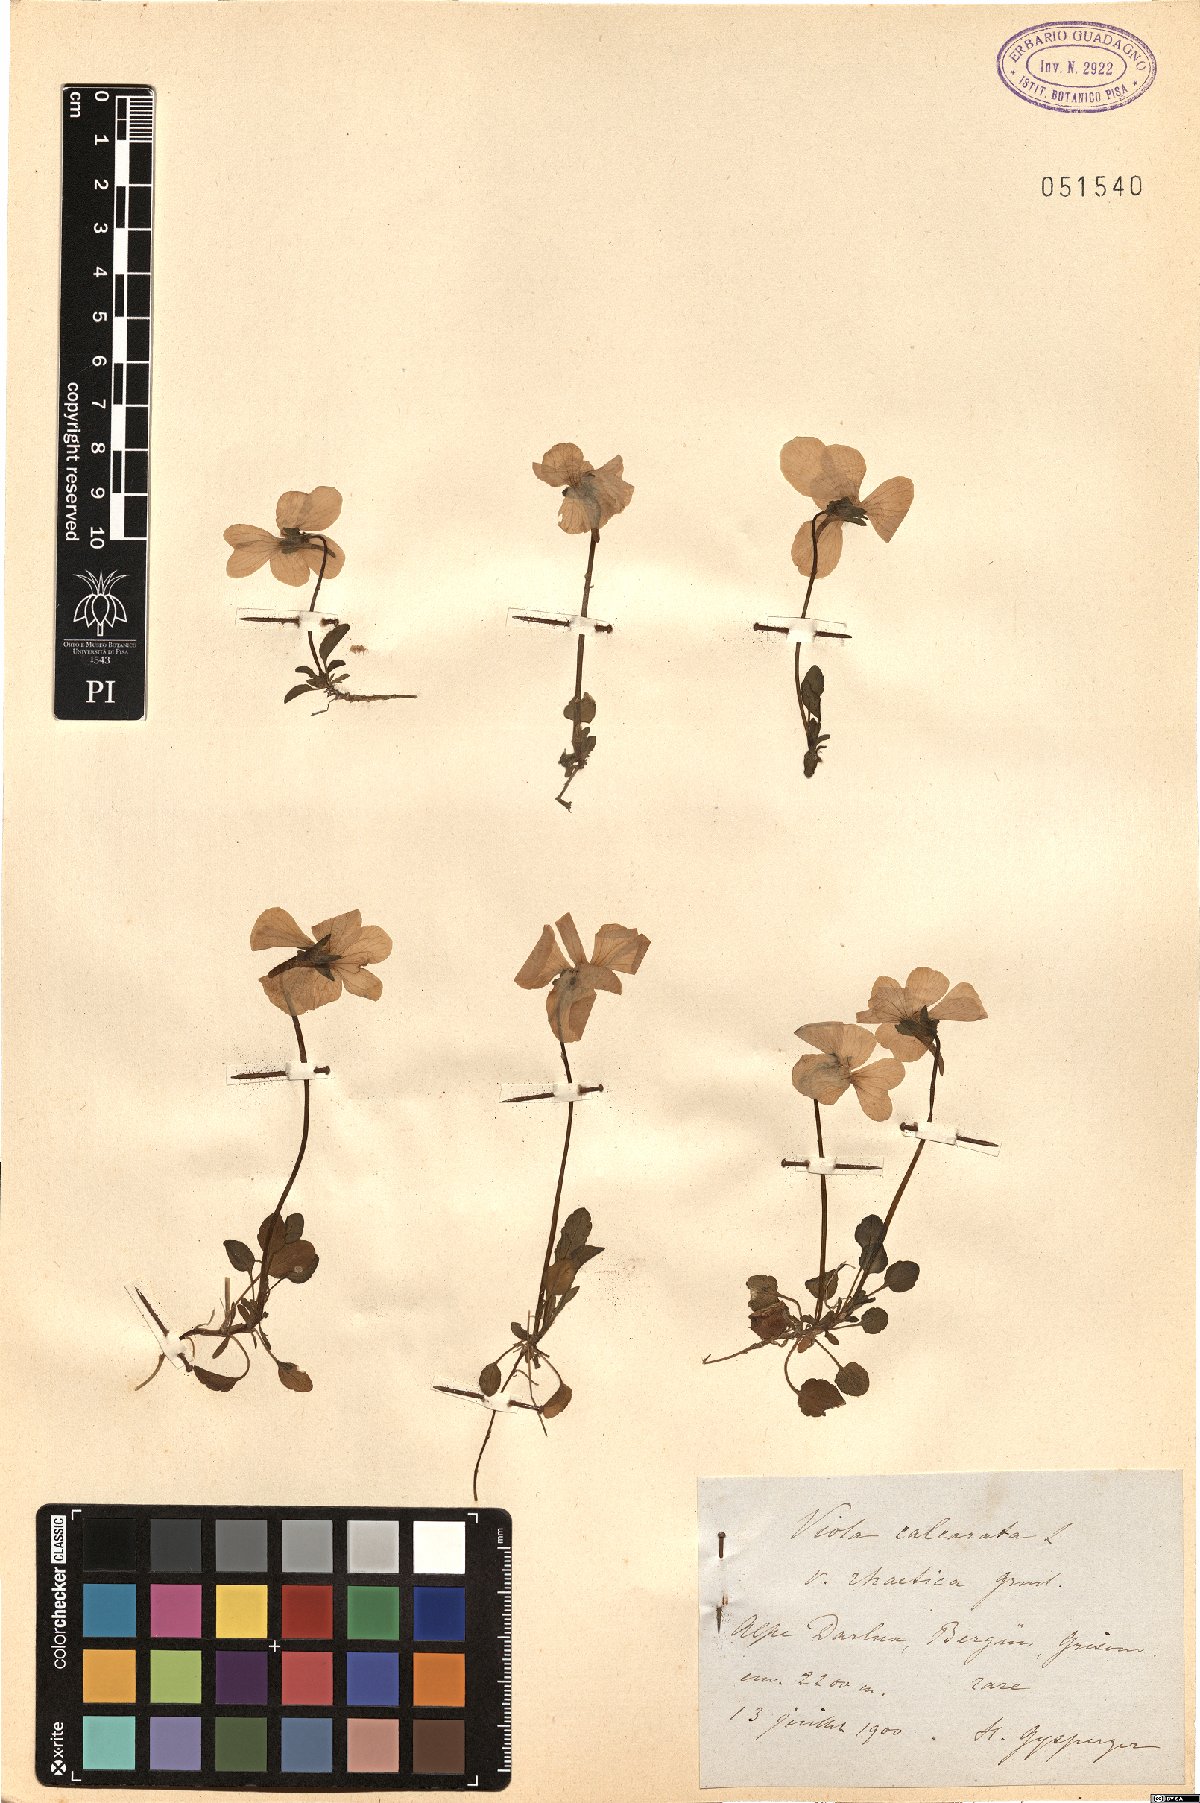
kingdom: Plantae
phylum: Tracheophyta
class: Magnoliopsida
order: Malpighiales
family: Violaceae
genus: Viola
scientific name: Viola calcarata
